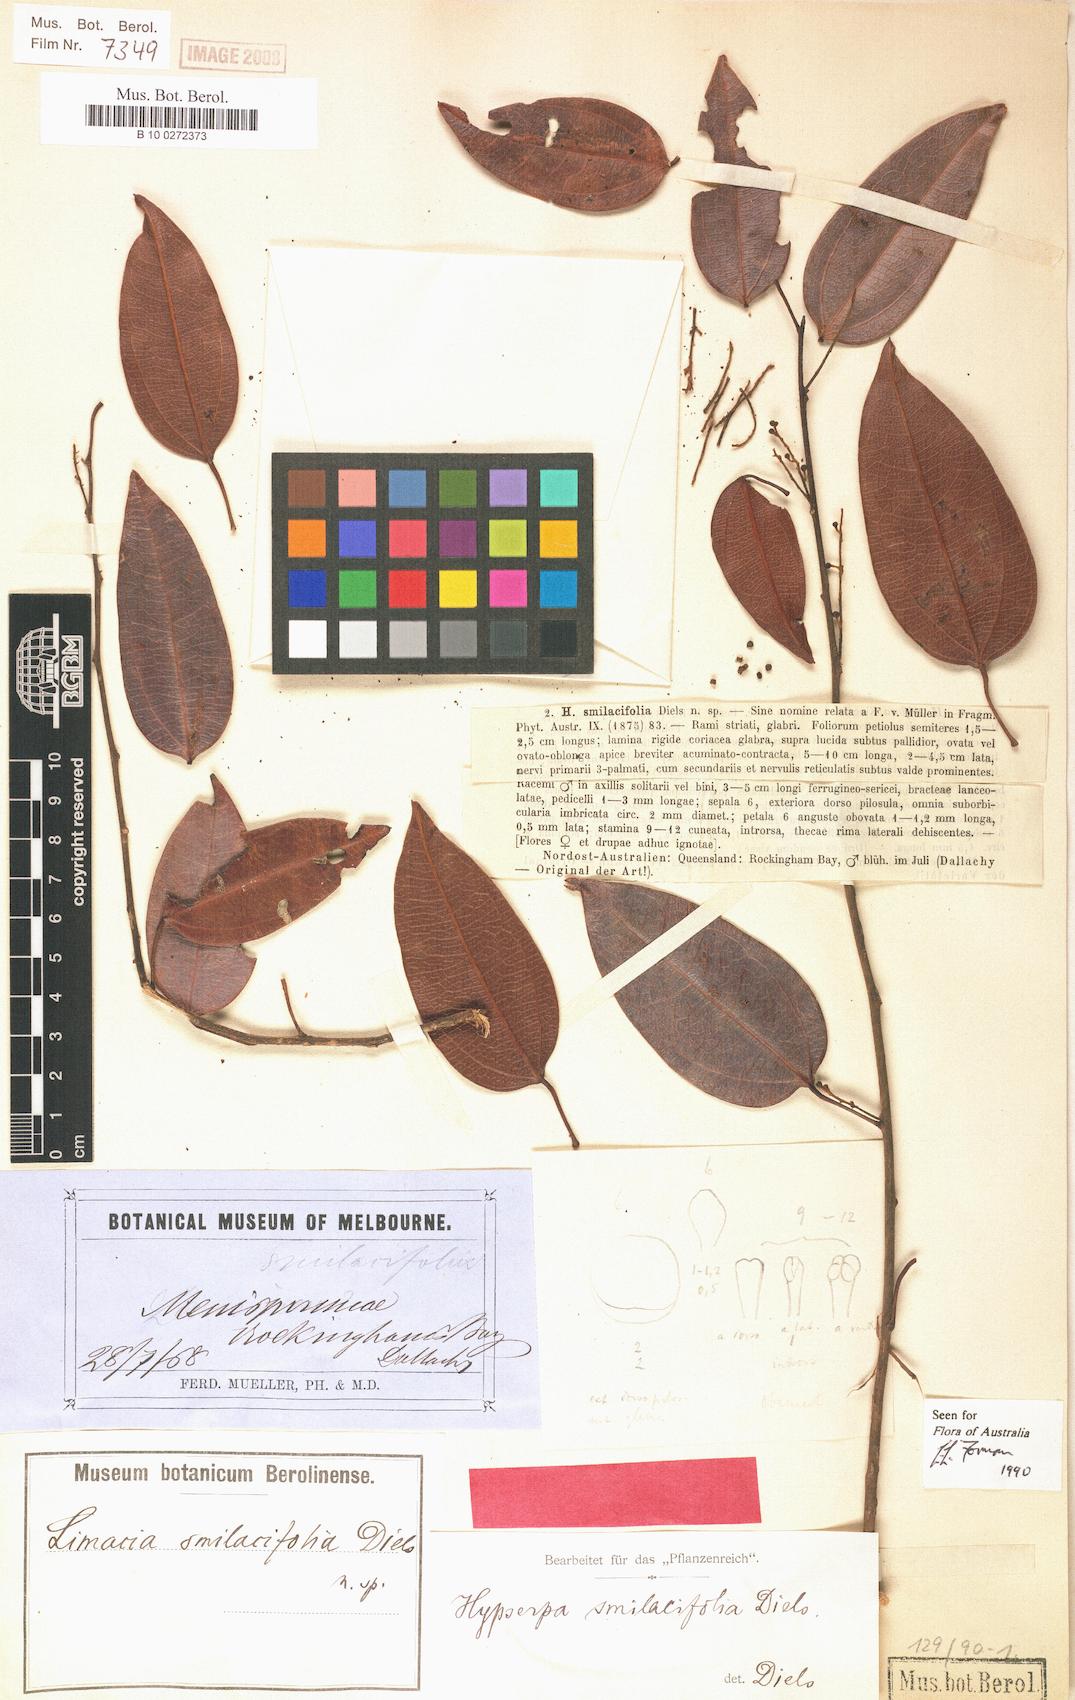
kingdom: Plantae
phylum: Tracheophyta
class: Magnoliopsida
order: Ranunculales
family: Menispermaceae
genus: Hypserpa
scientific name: Hypserpa smilacifolia
